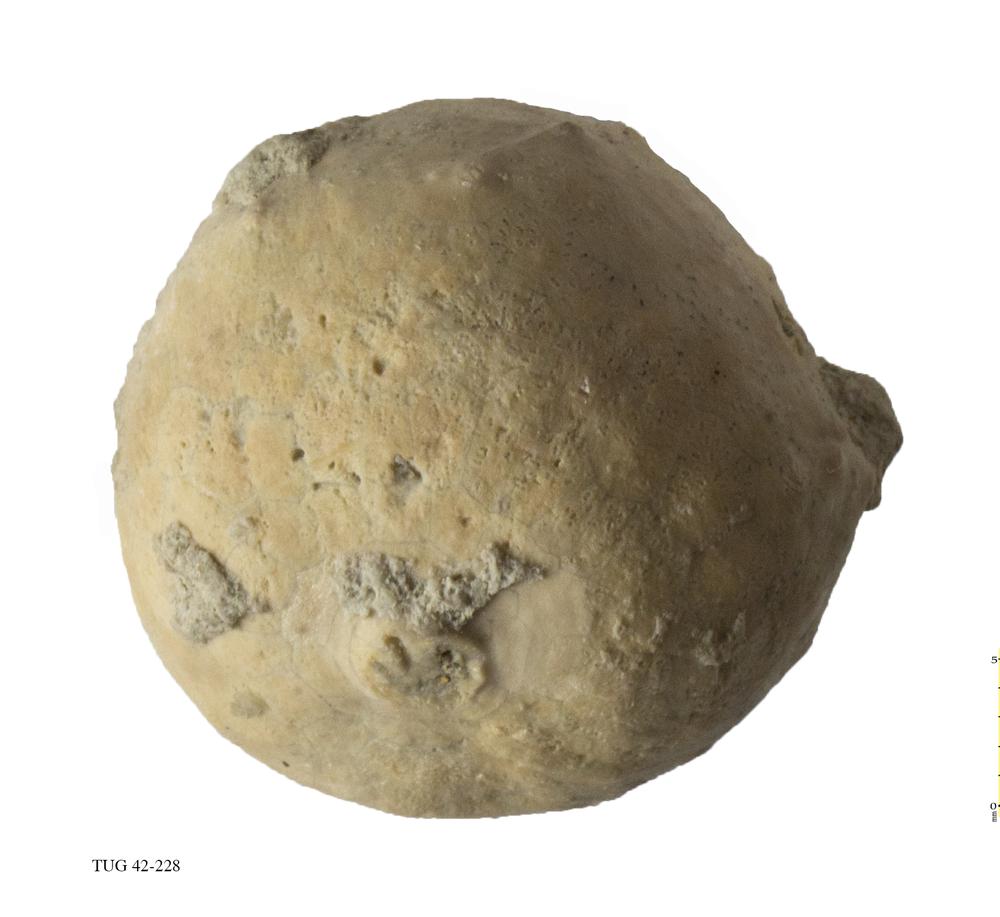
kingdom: Animalia
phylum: Echinodermata
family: Echinosphaeritidae
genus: Echinosphaerites
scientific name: Echinosphaerites Echinus aurantium
